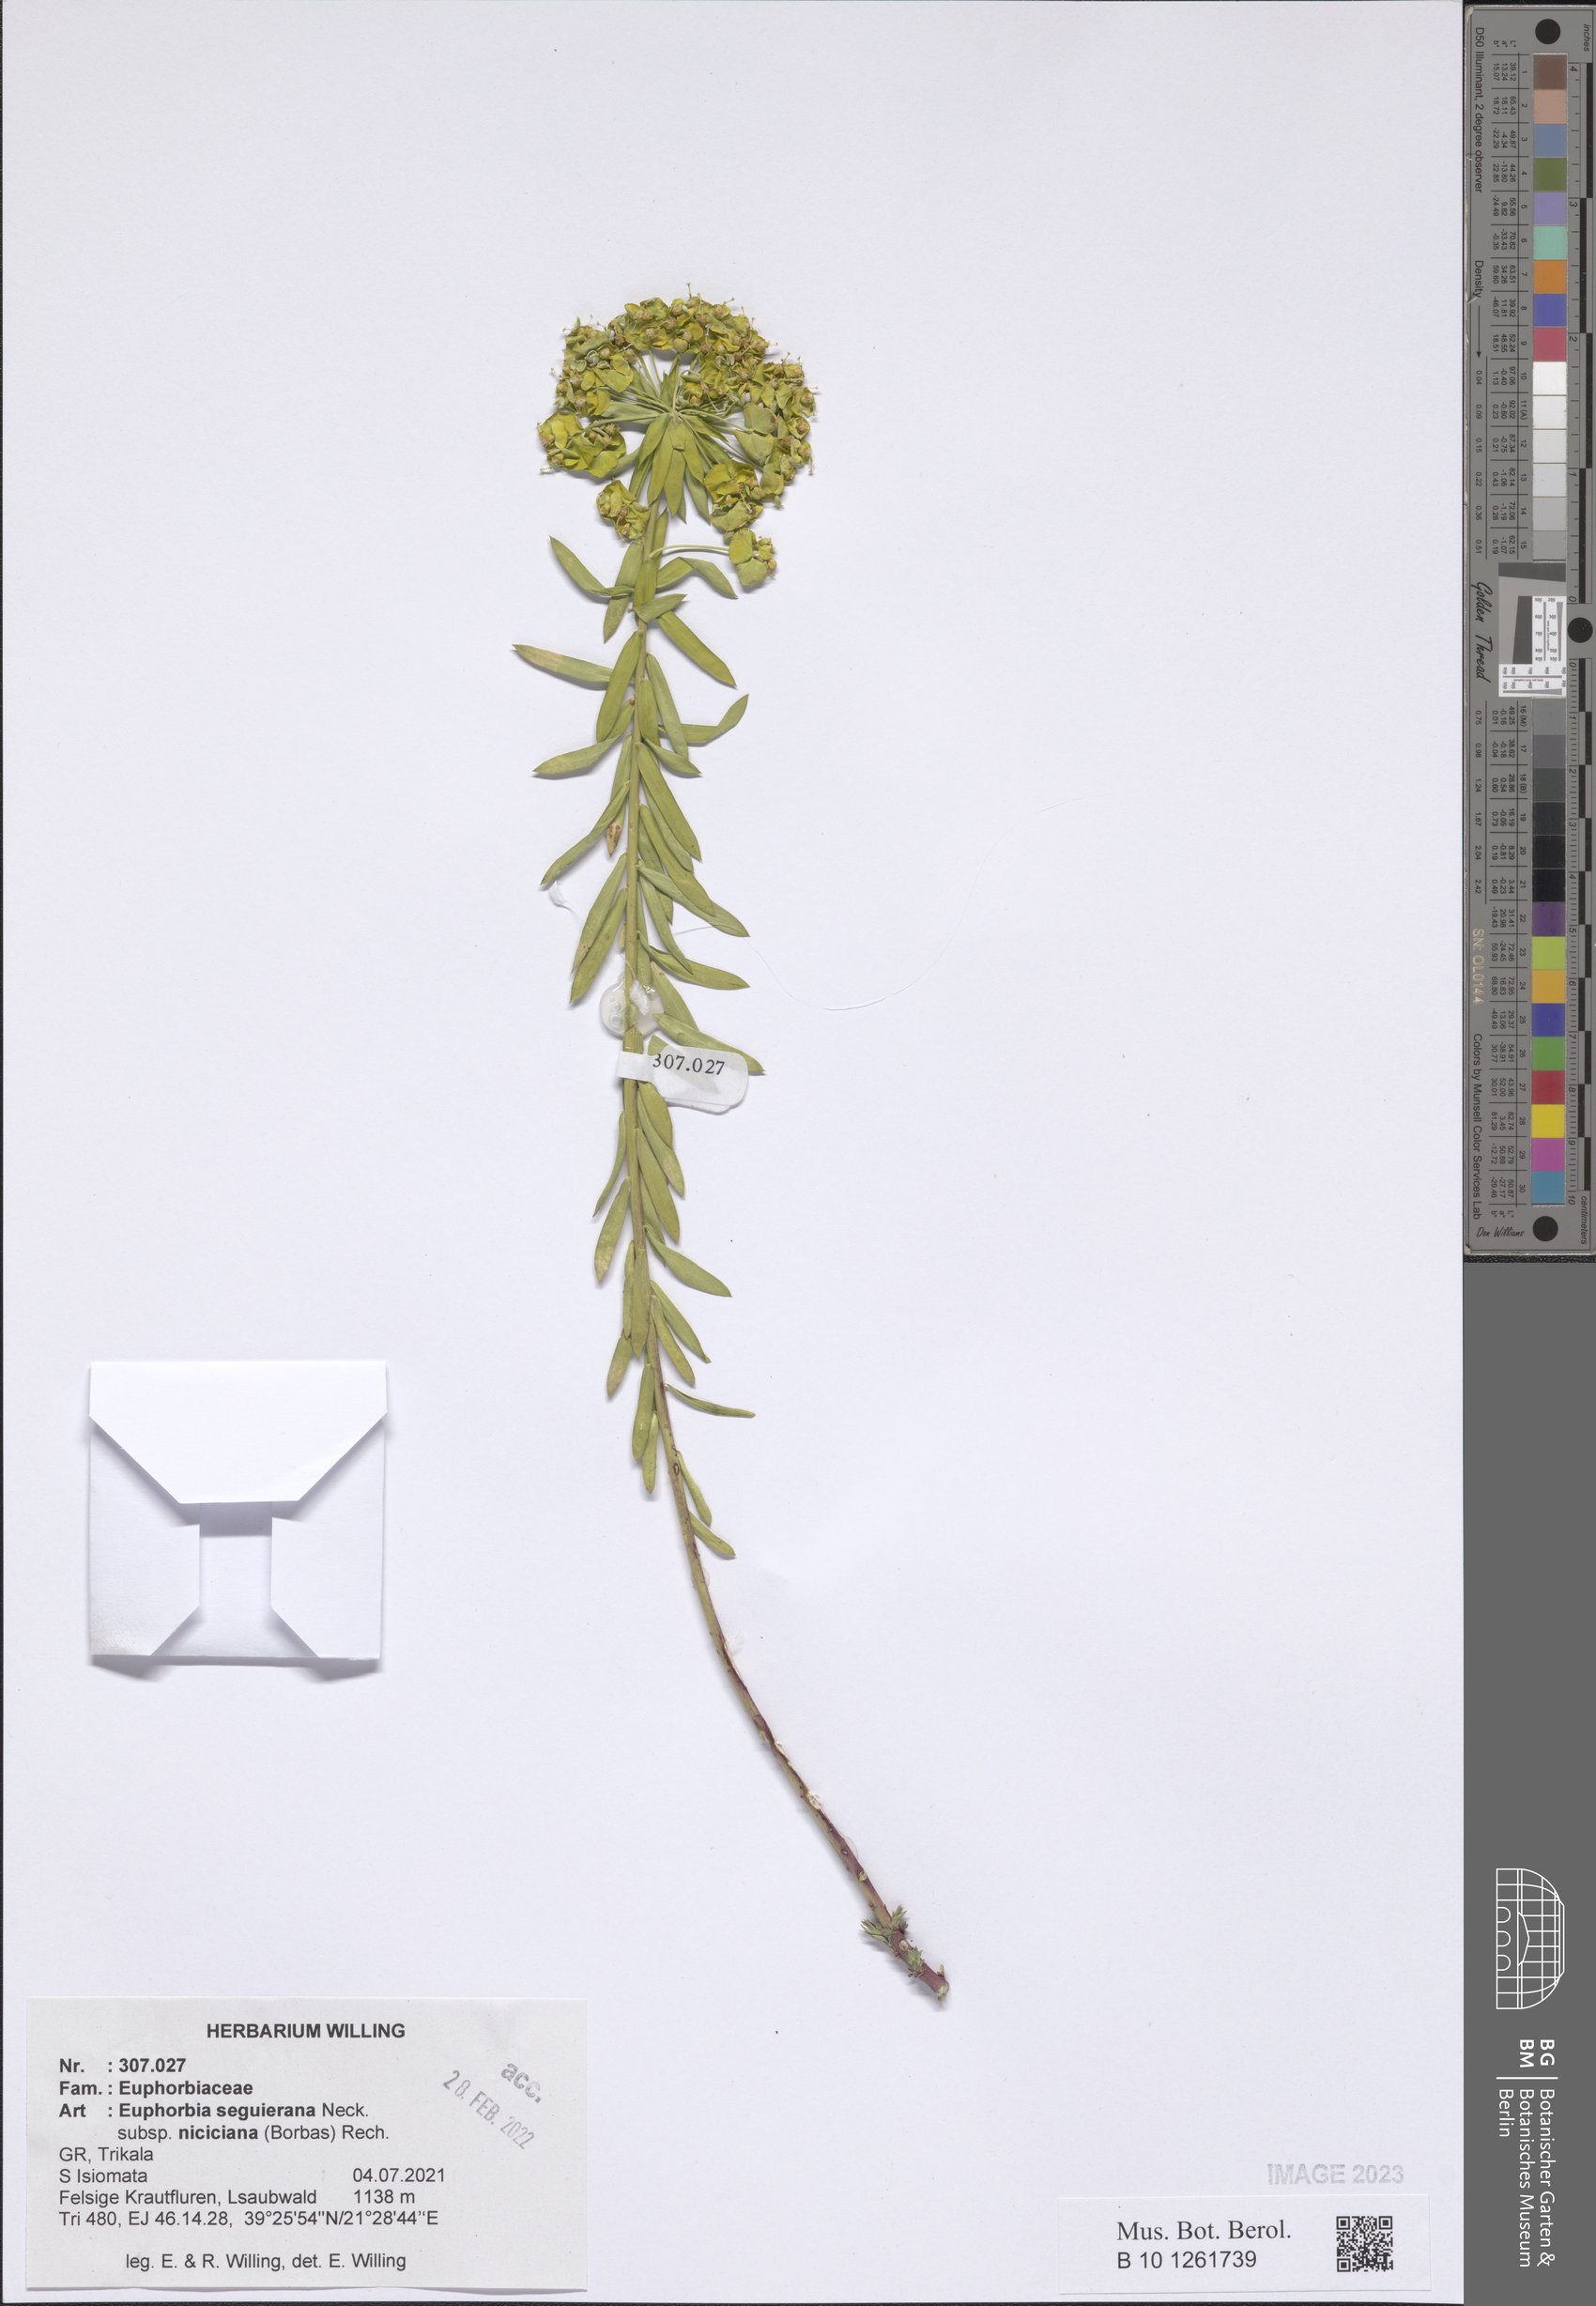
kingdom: Plantae
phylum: Tracheophyta
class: Magnoliopsida
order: Malpighiales
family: Euphorbiaceae
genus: Euphorbia
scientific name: Euphorbia seguieriana
